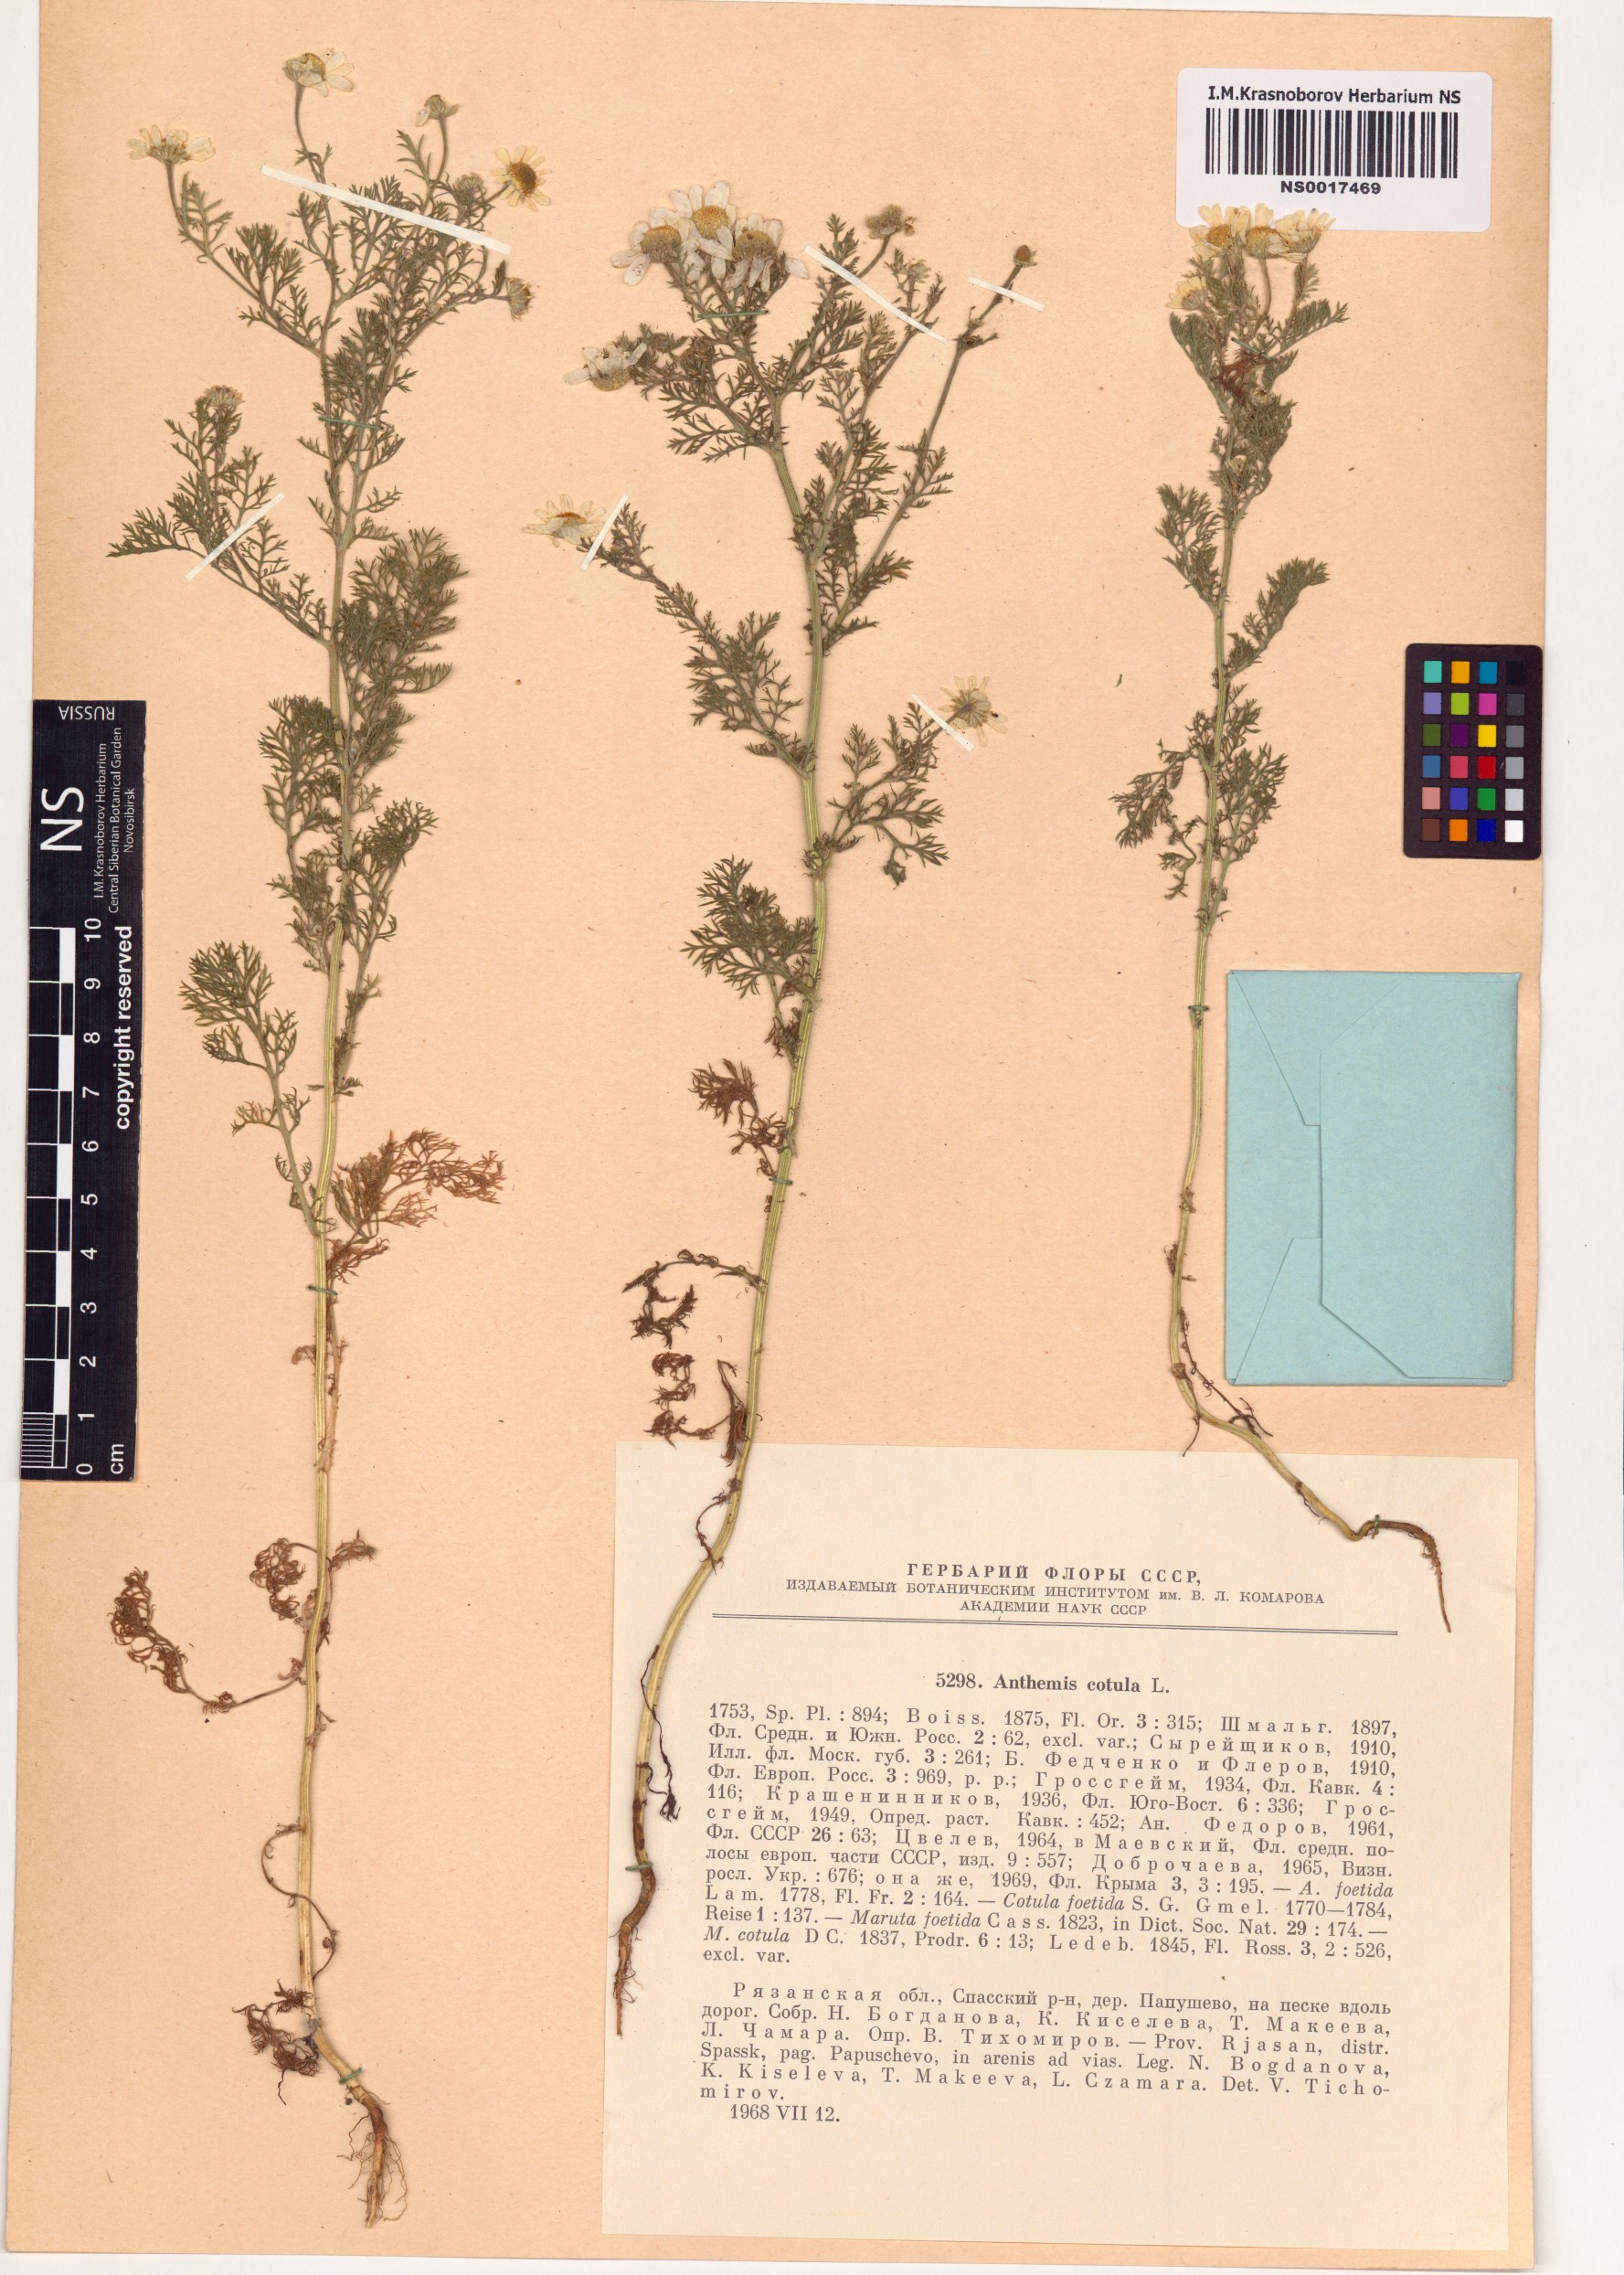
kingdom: Plantae
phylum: Tracheophyta
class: Magnoliopsida
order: Asterales
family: Asteraceae
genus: Anthemis
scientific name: Anthemis cotula
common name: Stinking chamomile
